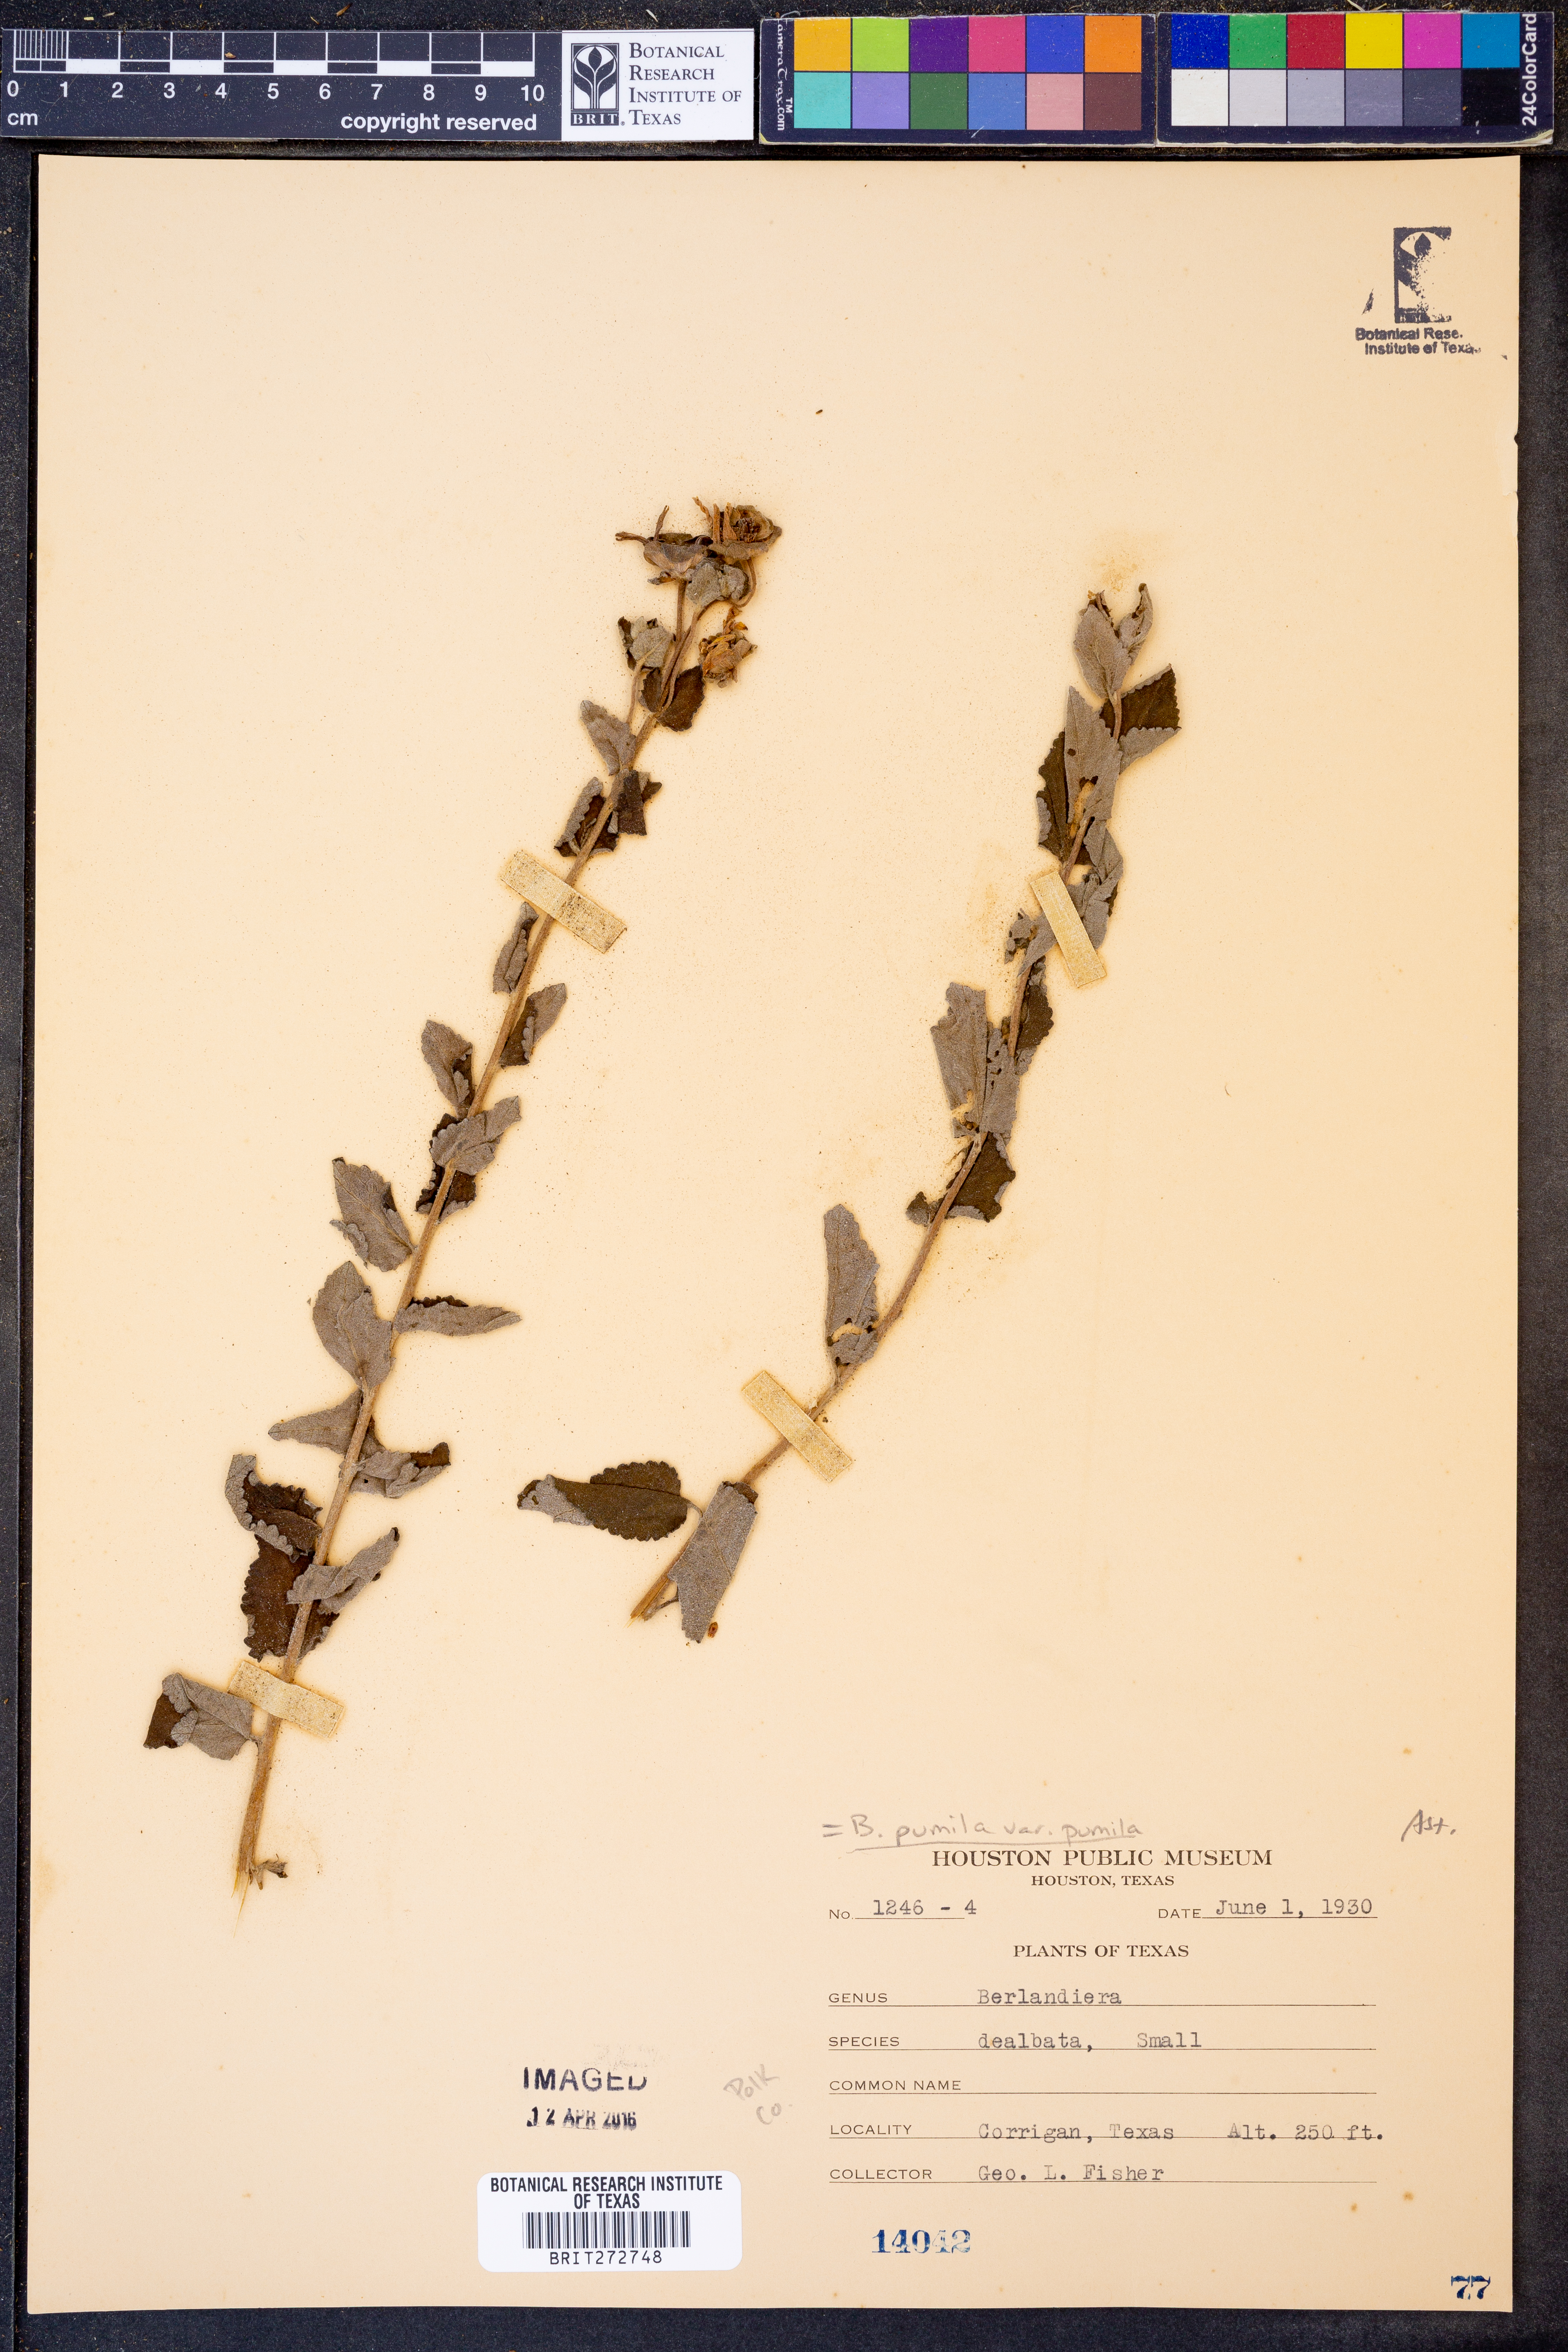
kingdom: Plantae
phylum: Tracheophyta
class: Magnoliopsida
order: Asterales
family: Asteraceae
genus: Berlandiera
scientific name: Berlandiera pumila
